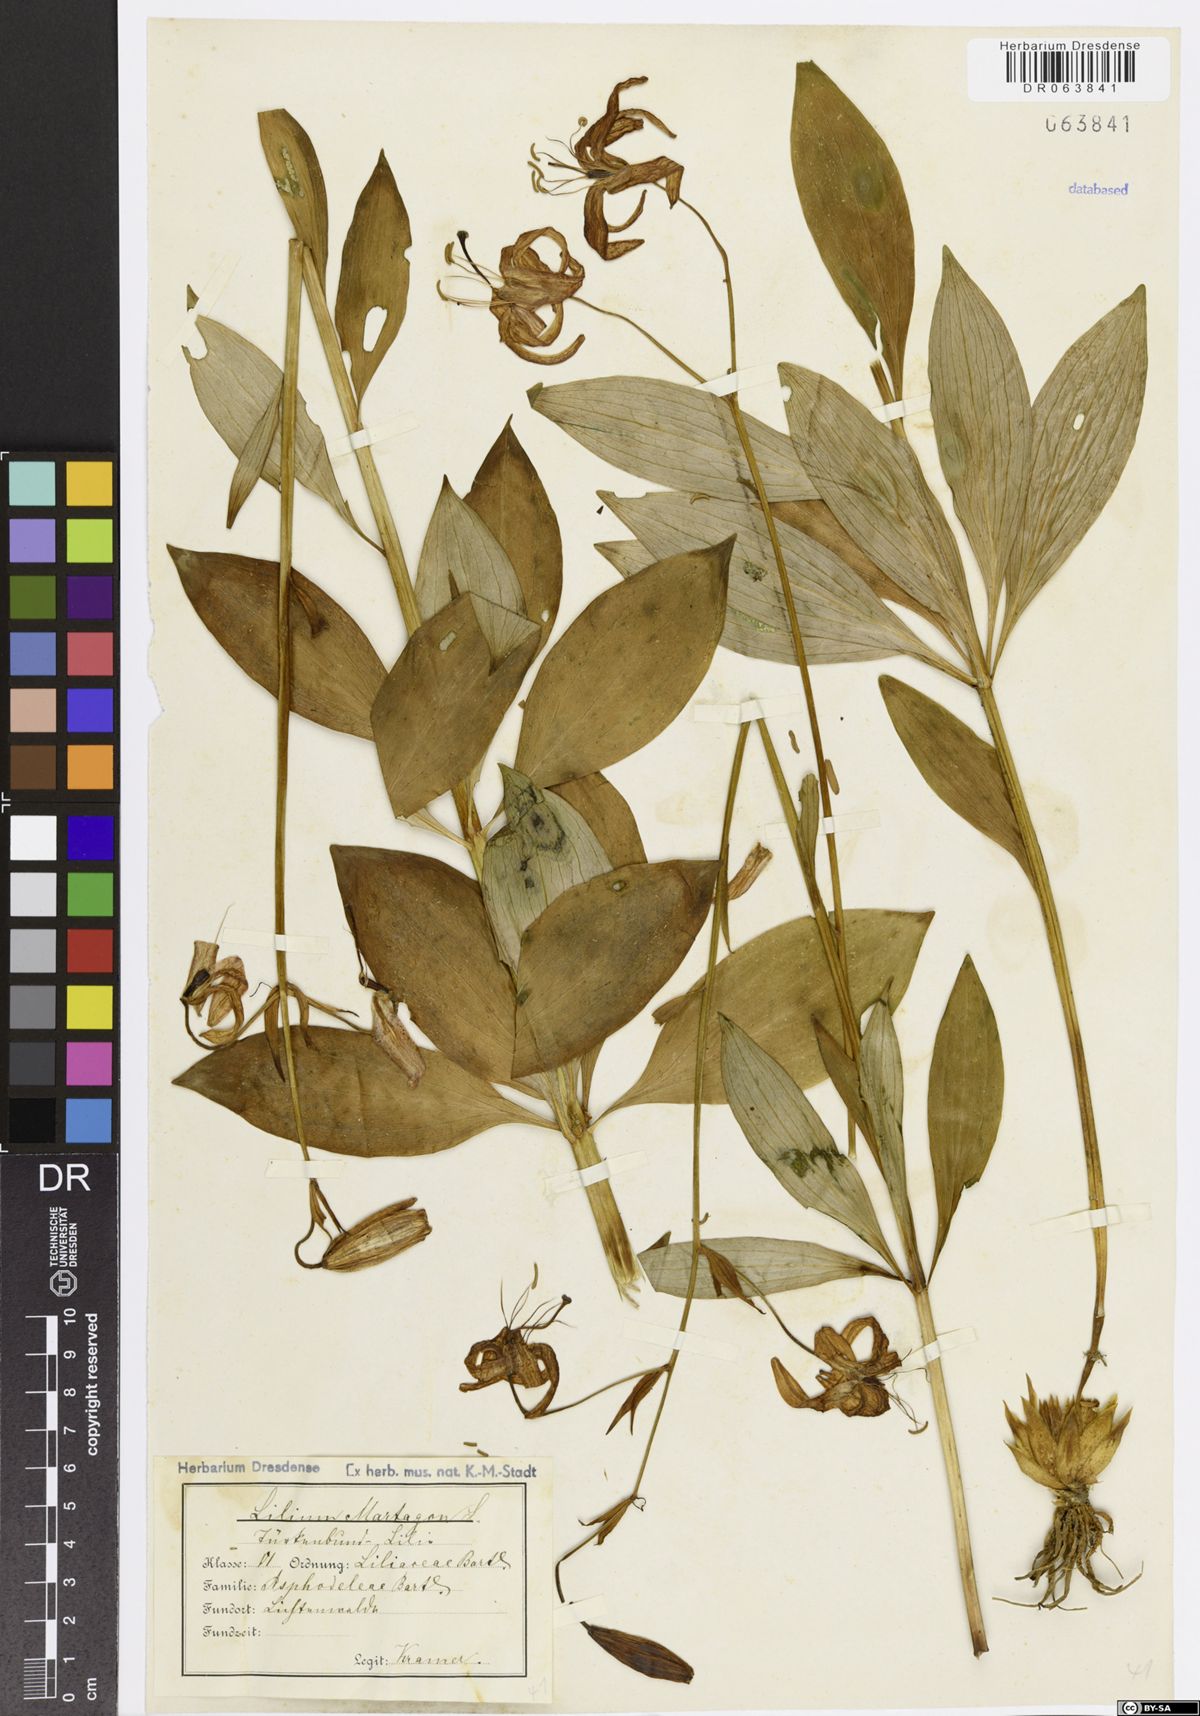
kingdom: Plantae
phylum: Tracheophyta
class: Liliopsida
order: Liliales
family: Liliaceae
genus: Lilium
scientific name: Lilium martagon
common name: Martagon lily
